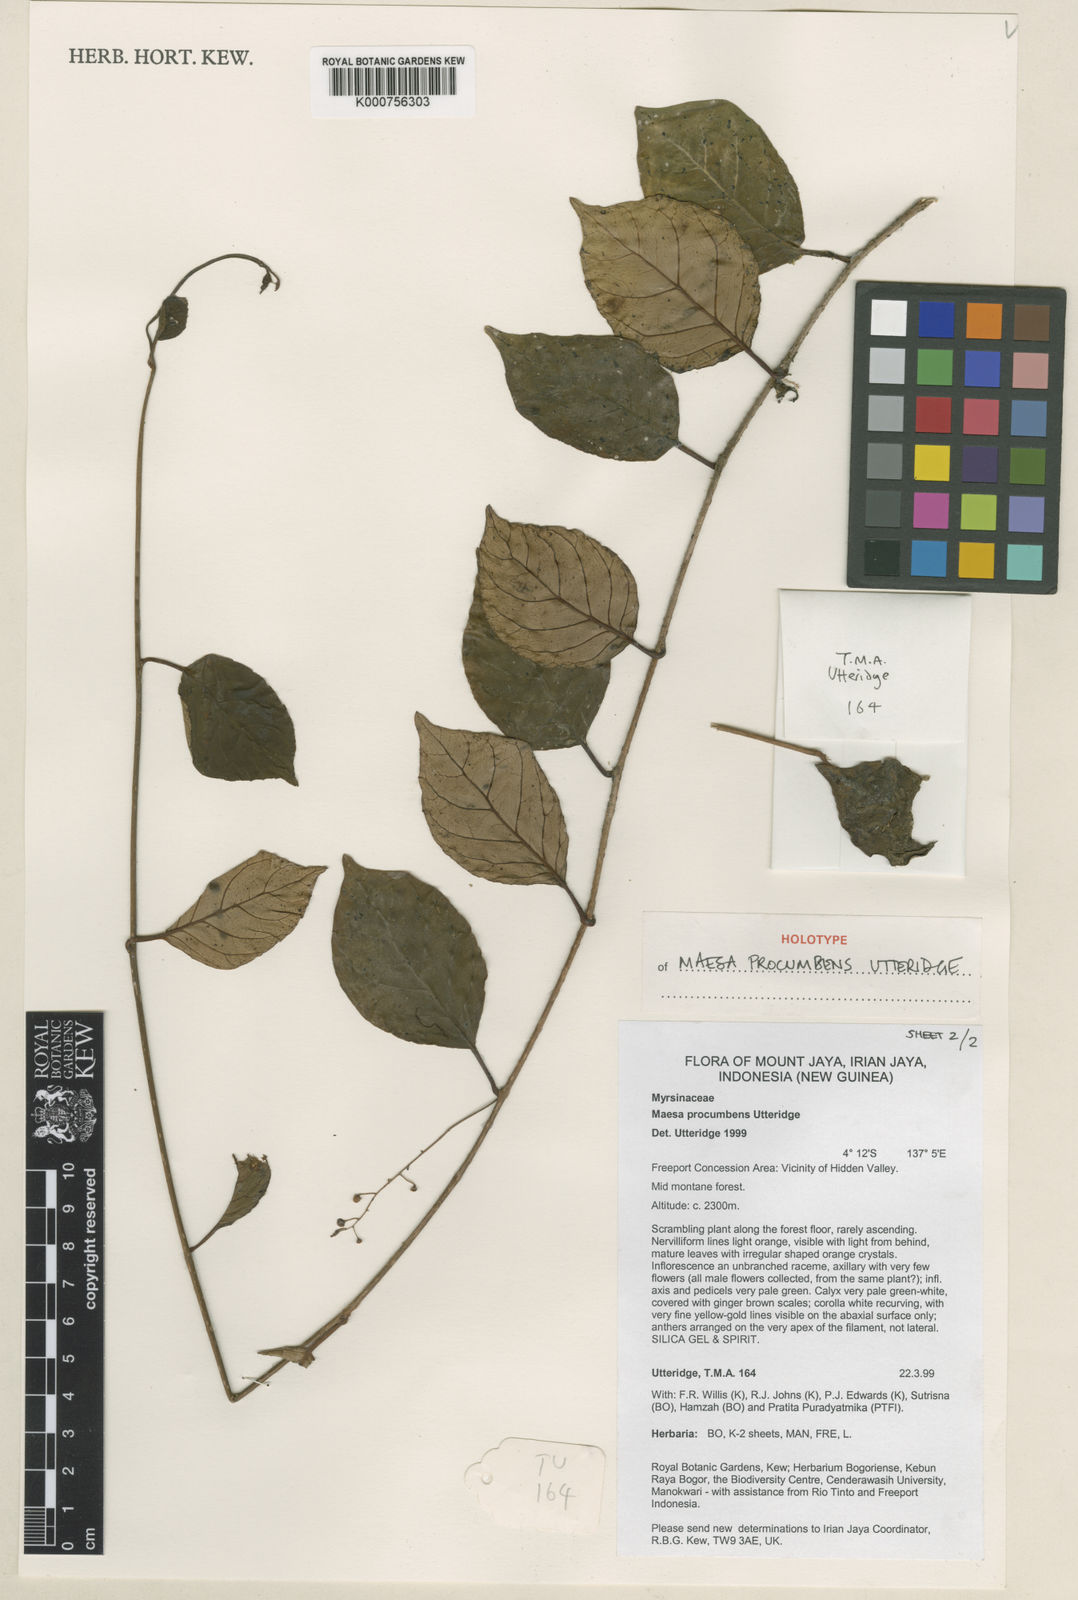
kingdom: Plantae
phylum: Tracheophyta
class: Magnoliopsida
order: Ericales
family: Primulaceae
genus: Maesa
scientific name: Maesa procumbens
